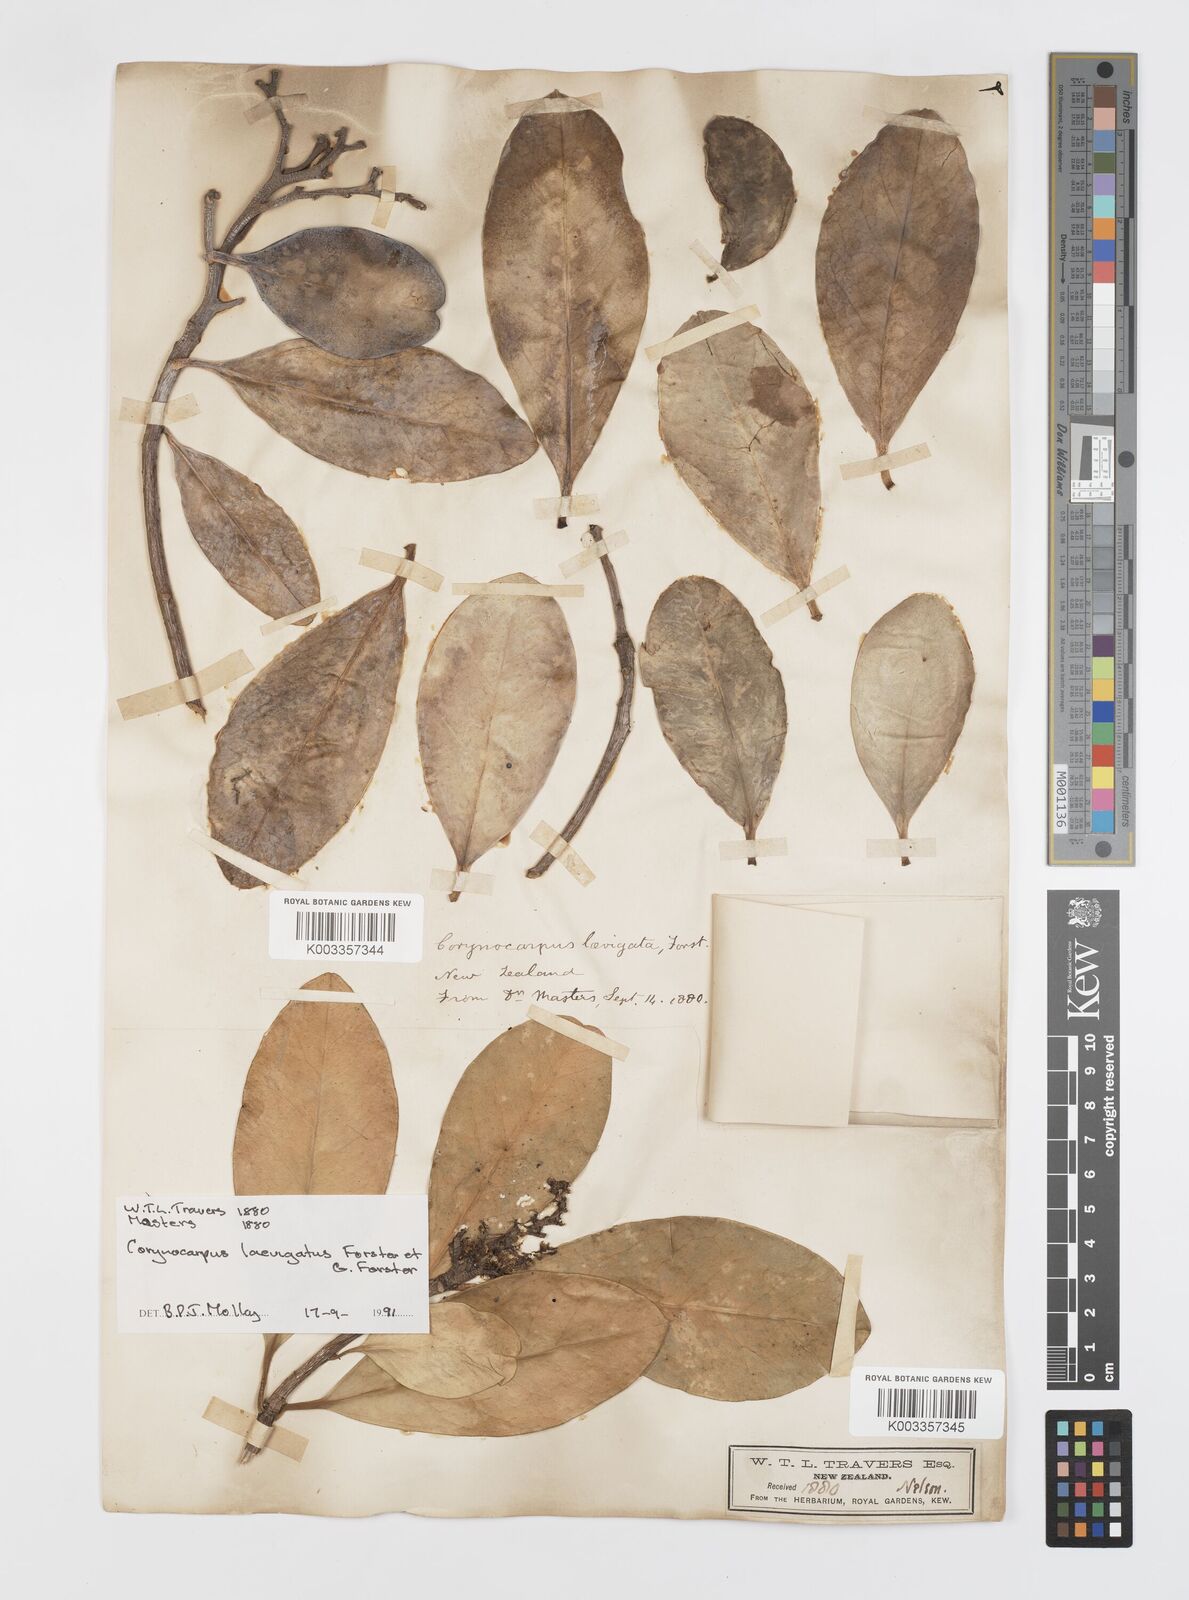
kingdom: Plantae
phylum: Tracheophyta
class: Magnoliopsida
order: Cucurbitales
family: Corynocarpaceae
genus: Corynocarpus
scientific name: Corynocarpus laevigatus
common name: New zealand laurel
